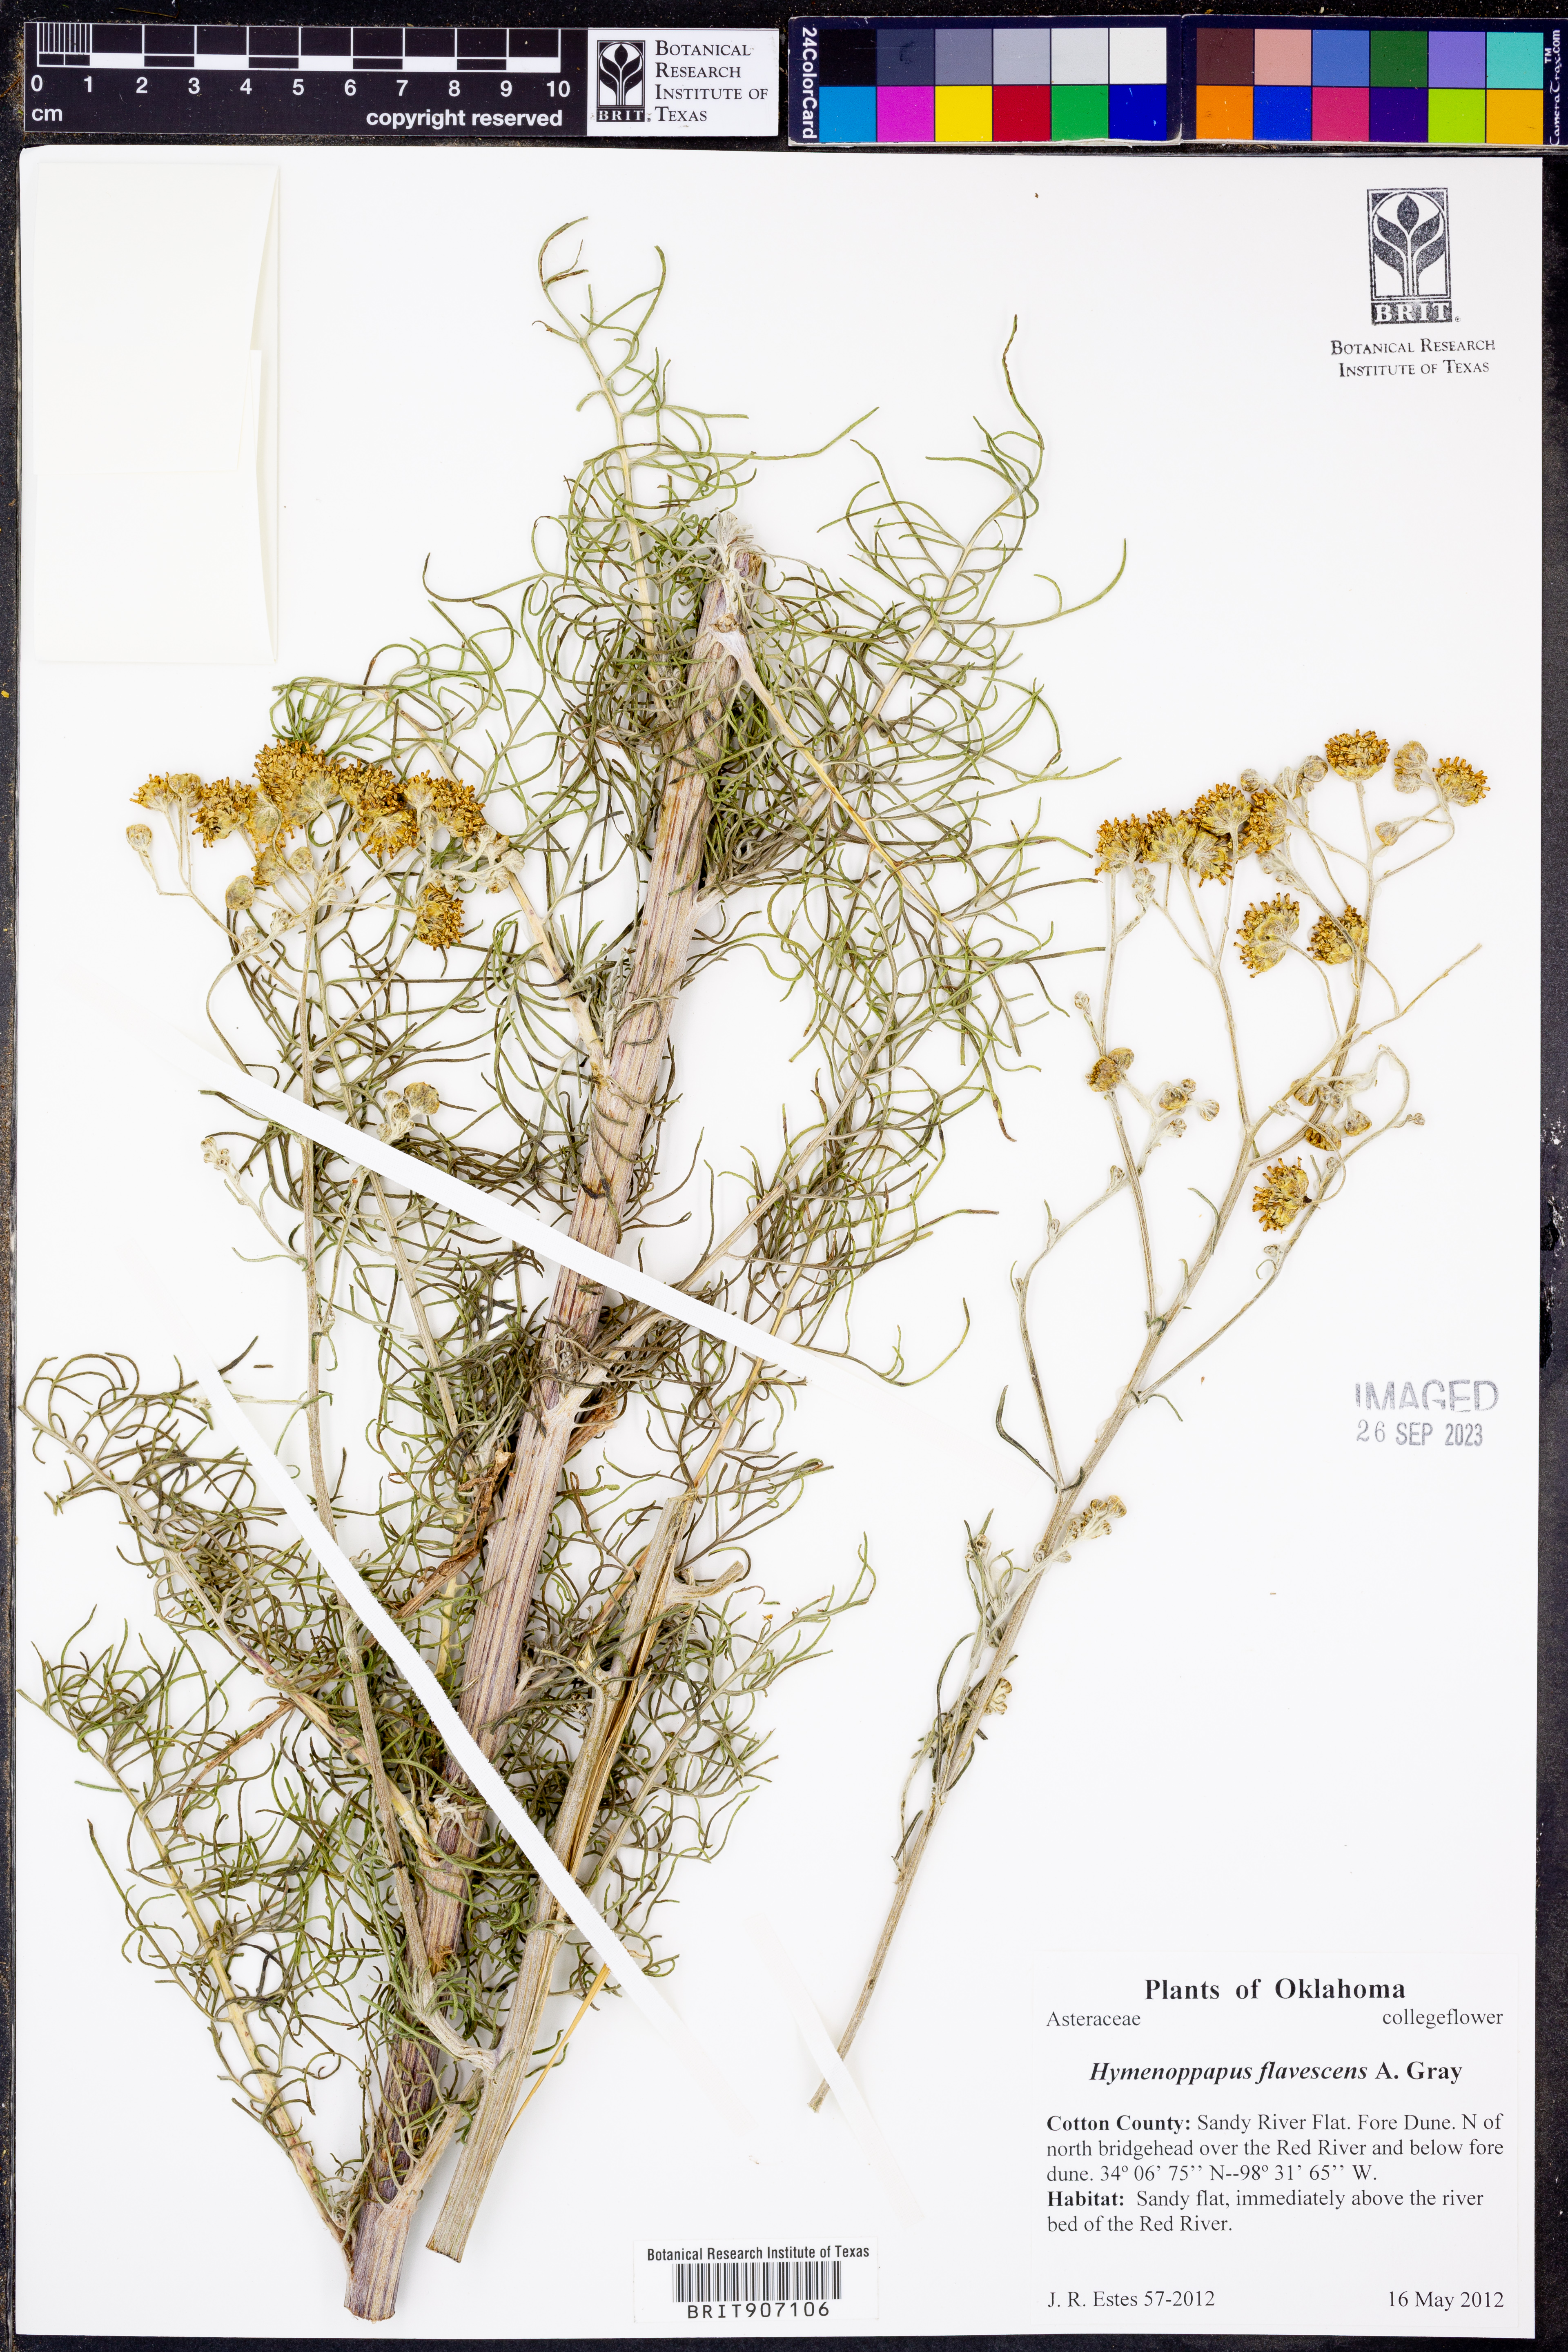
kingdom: Plantae
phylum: Tracheophyta
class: Magnoliopsida
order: Asterales
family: Asteraceae
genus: Hymenopappus
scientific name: Hymenopappus flavescens
